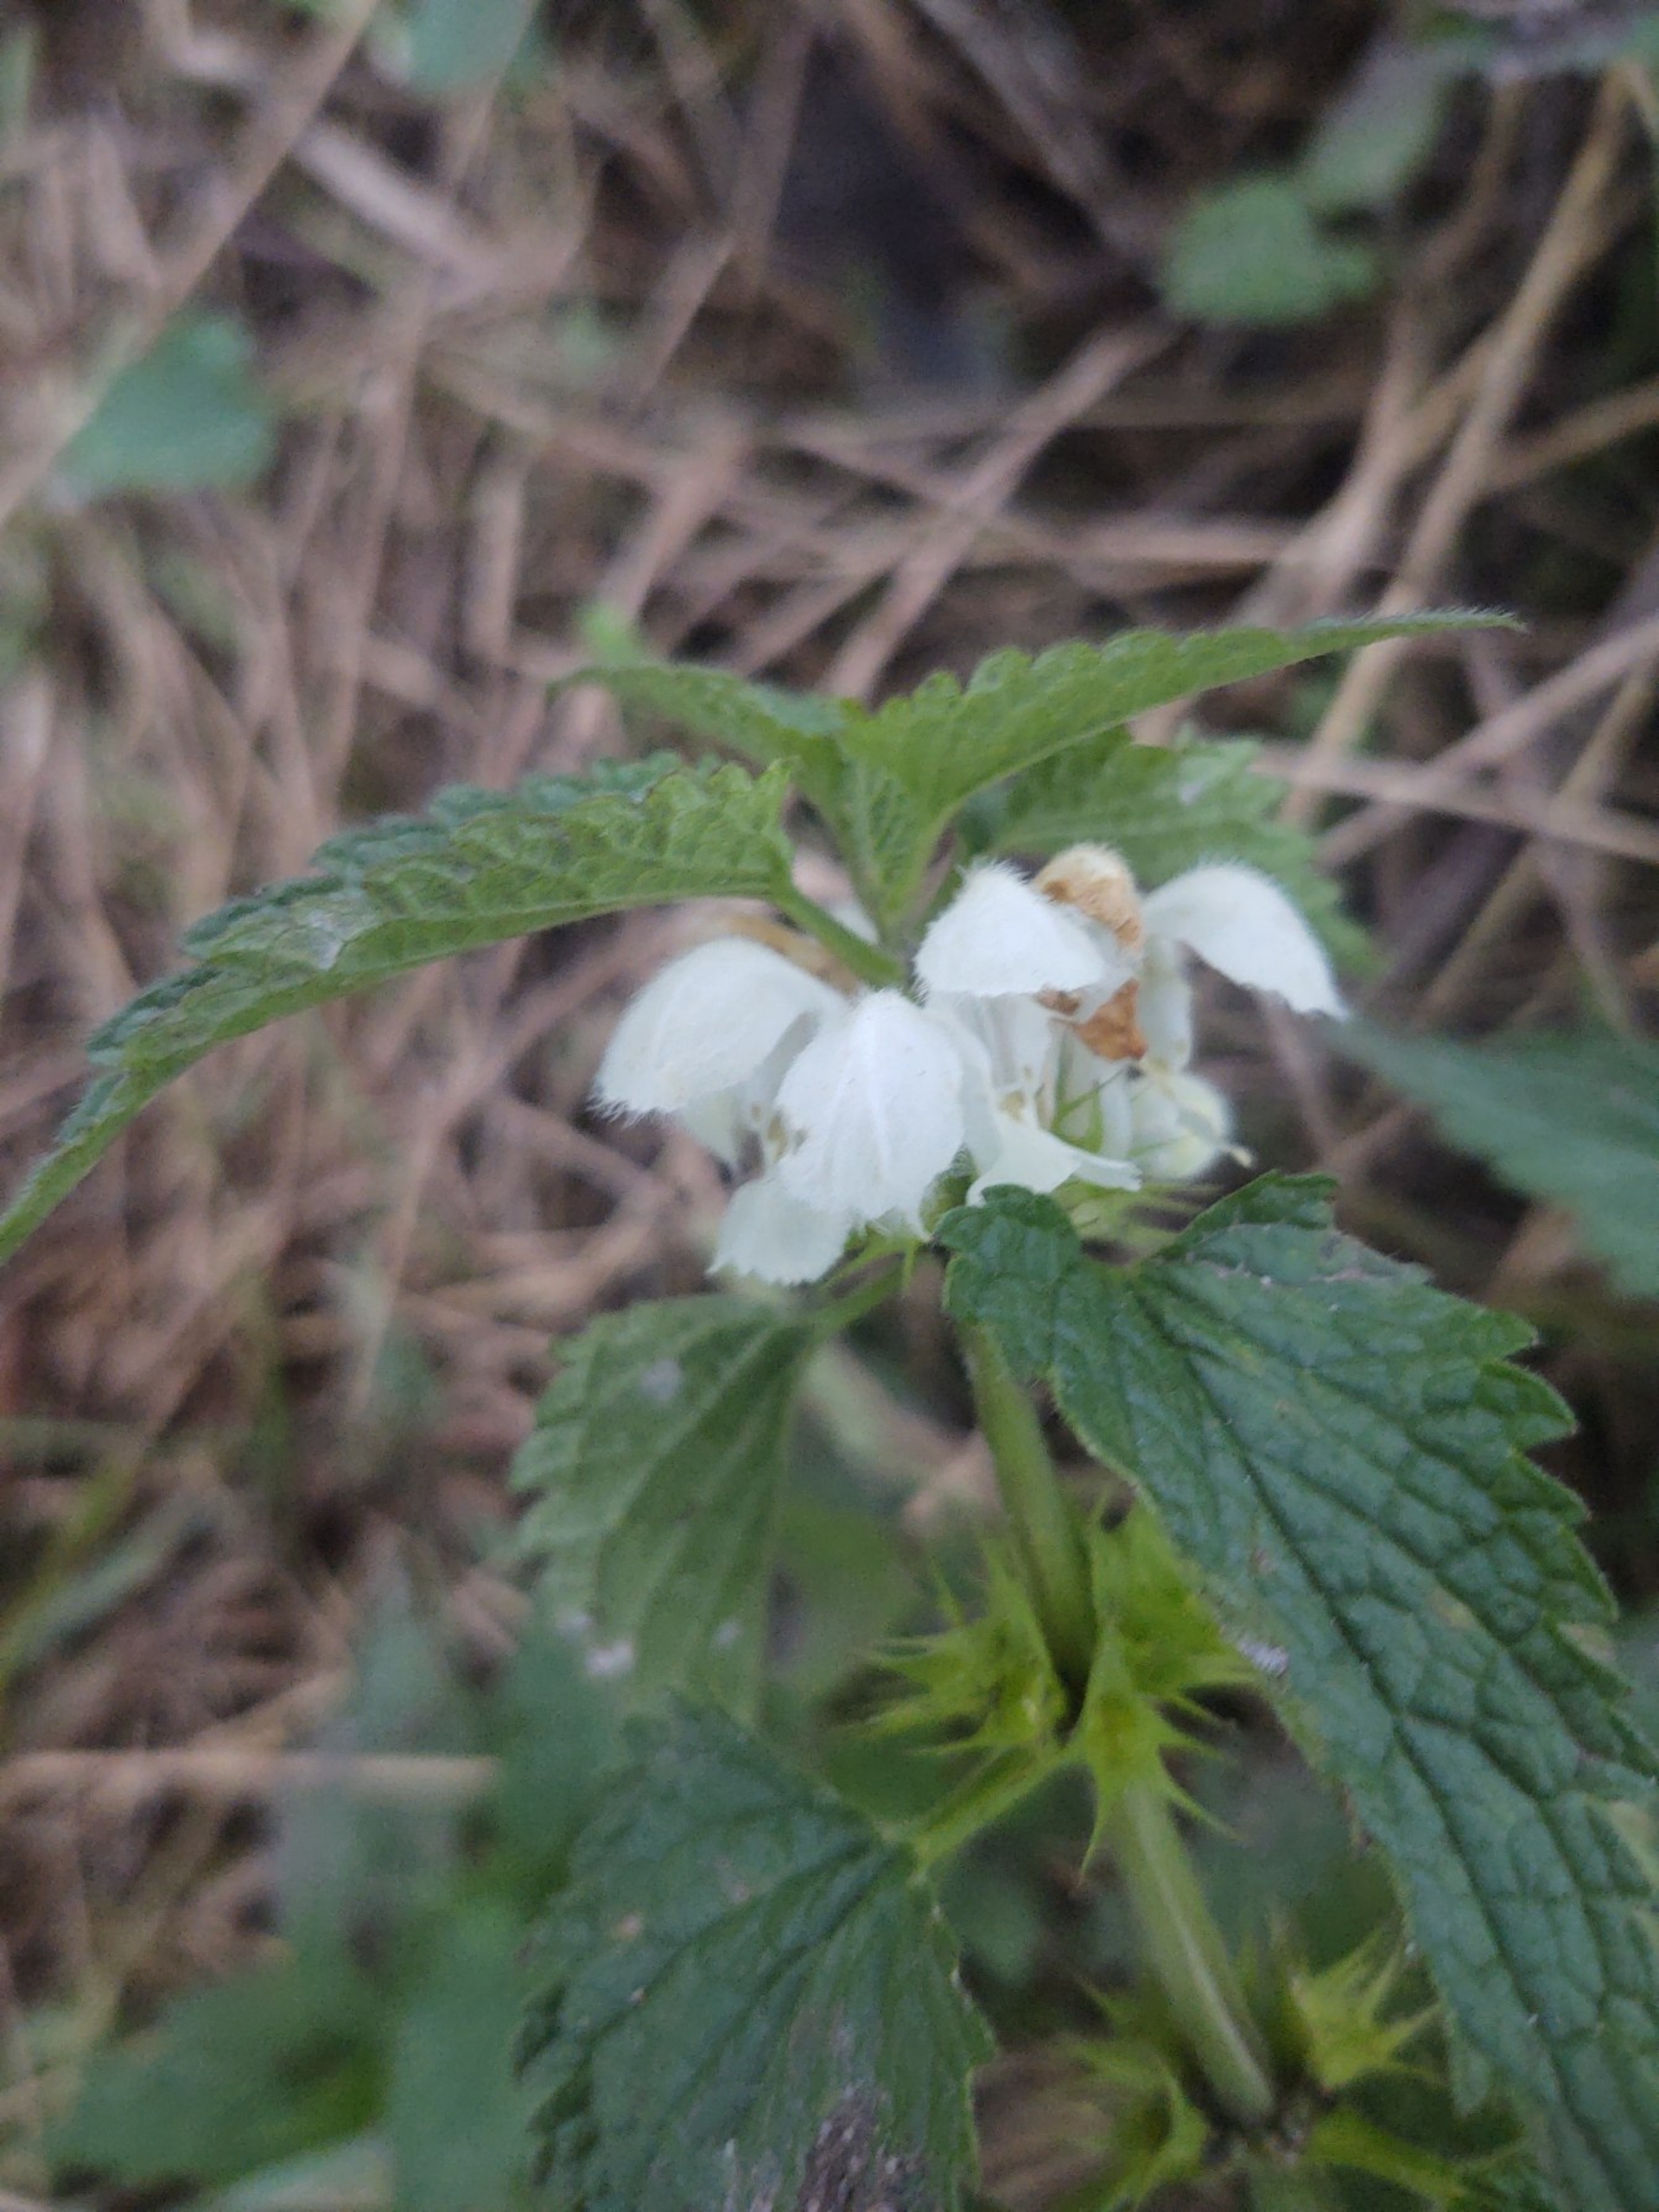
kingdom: Plantae
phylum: Tracheophyta
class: Magnoliopsida
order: Lamiales
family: Lamiaceae
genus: Lamium
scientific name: Lamium album
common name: Døvnælde
